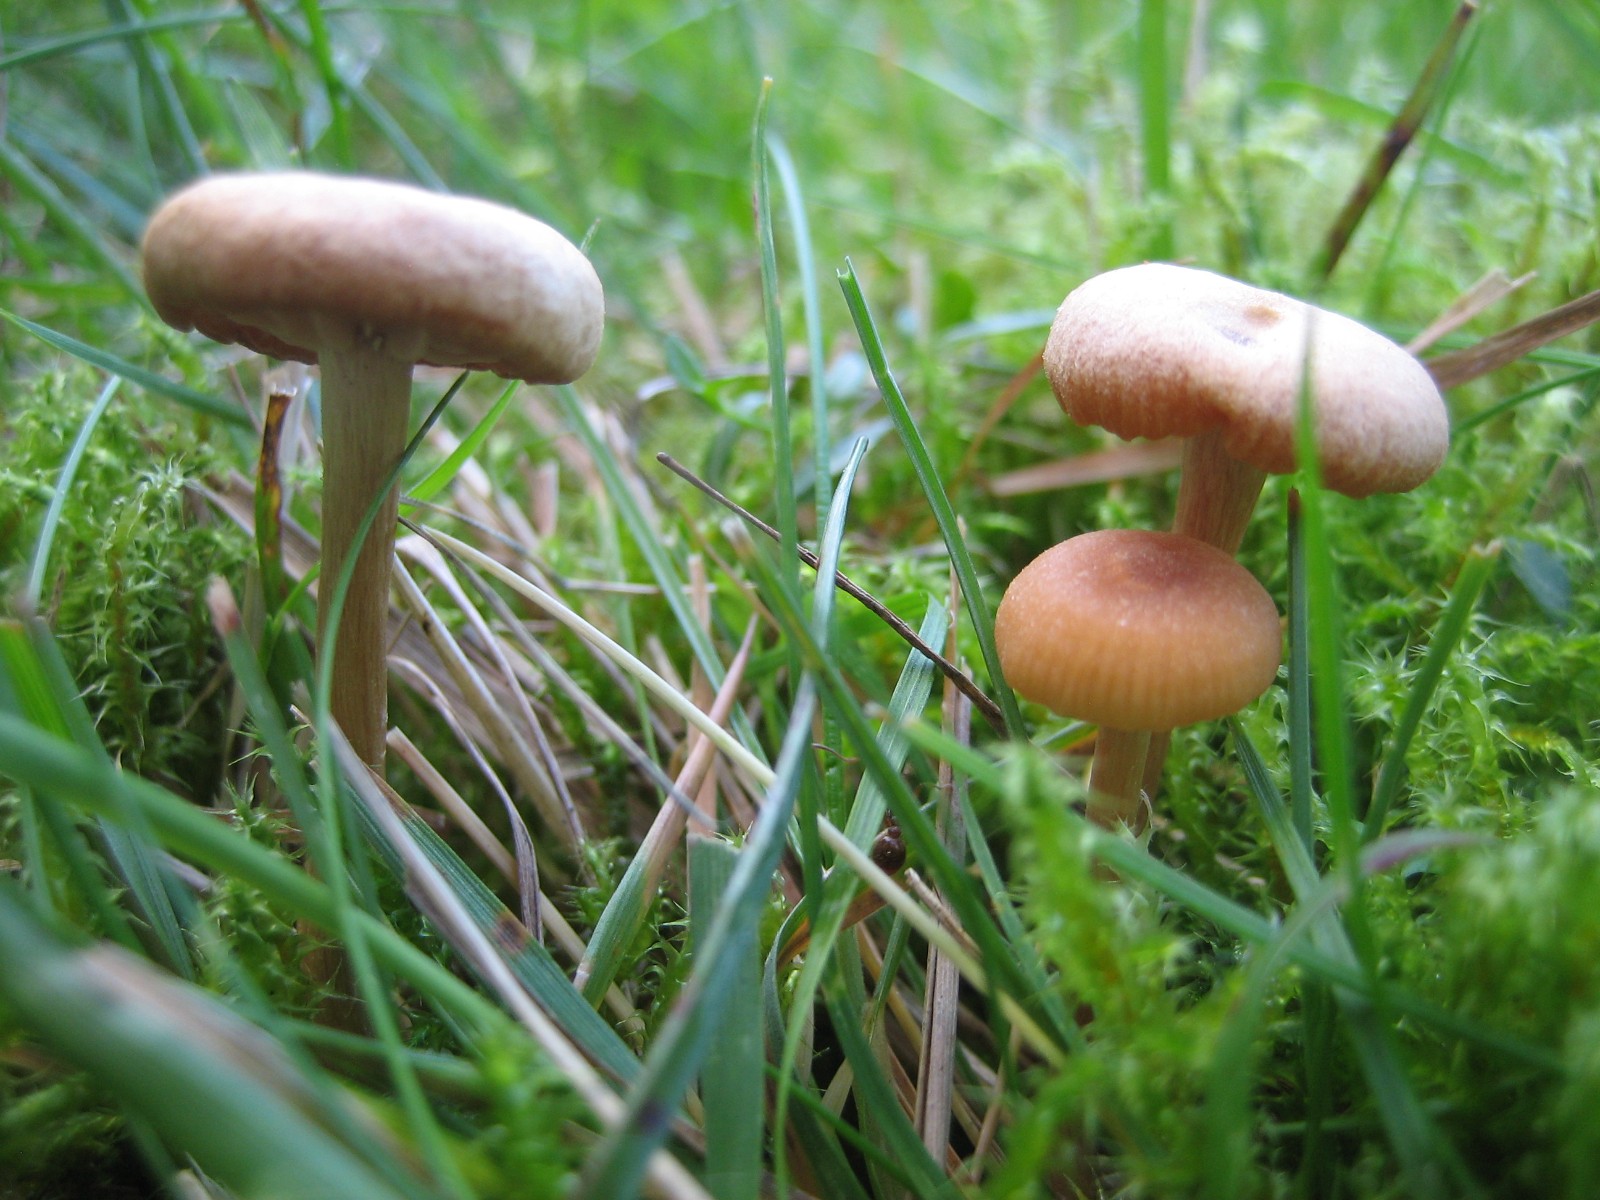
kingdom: Fungi
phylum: Basidiomycota
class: Agaricomycetes
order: Agaricales
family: Hydnangiaceae
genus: Laccaria
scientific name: Laccaria laccata
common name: rød ametysthat
